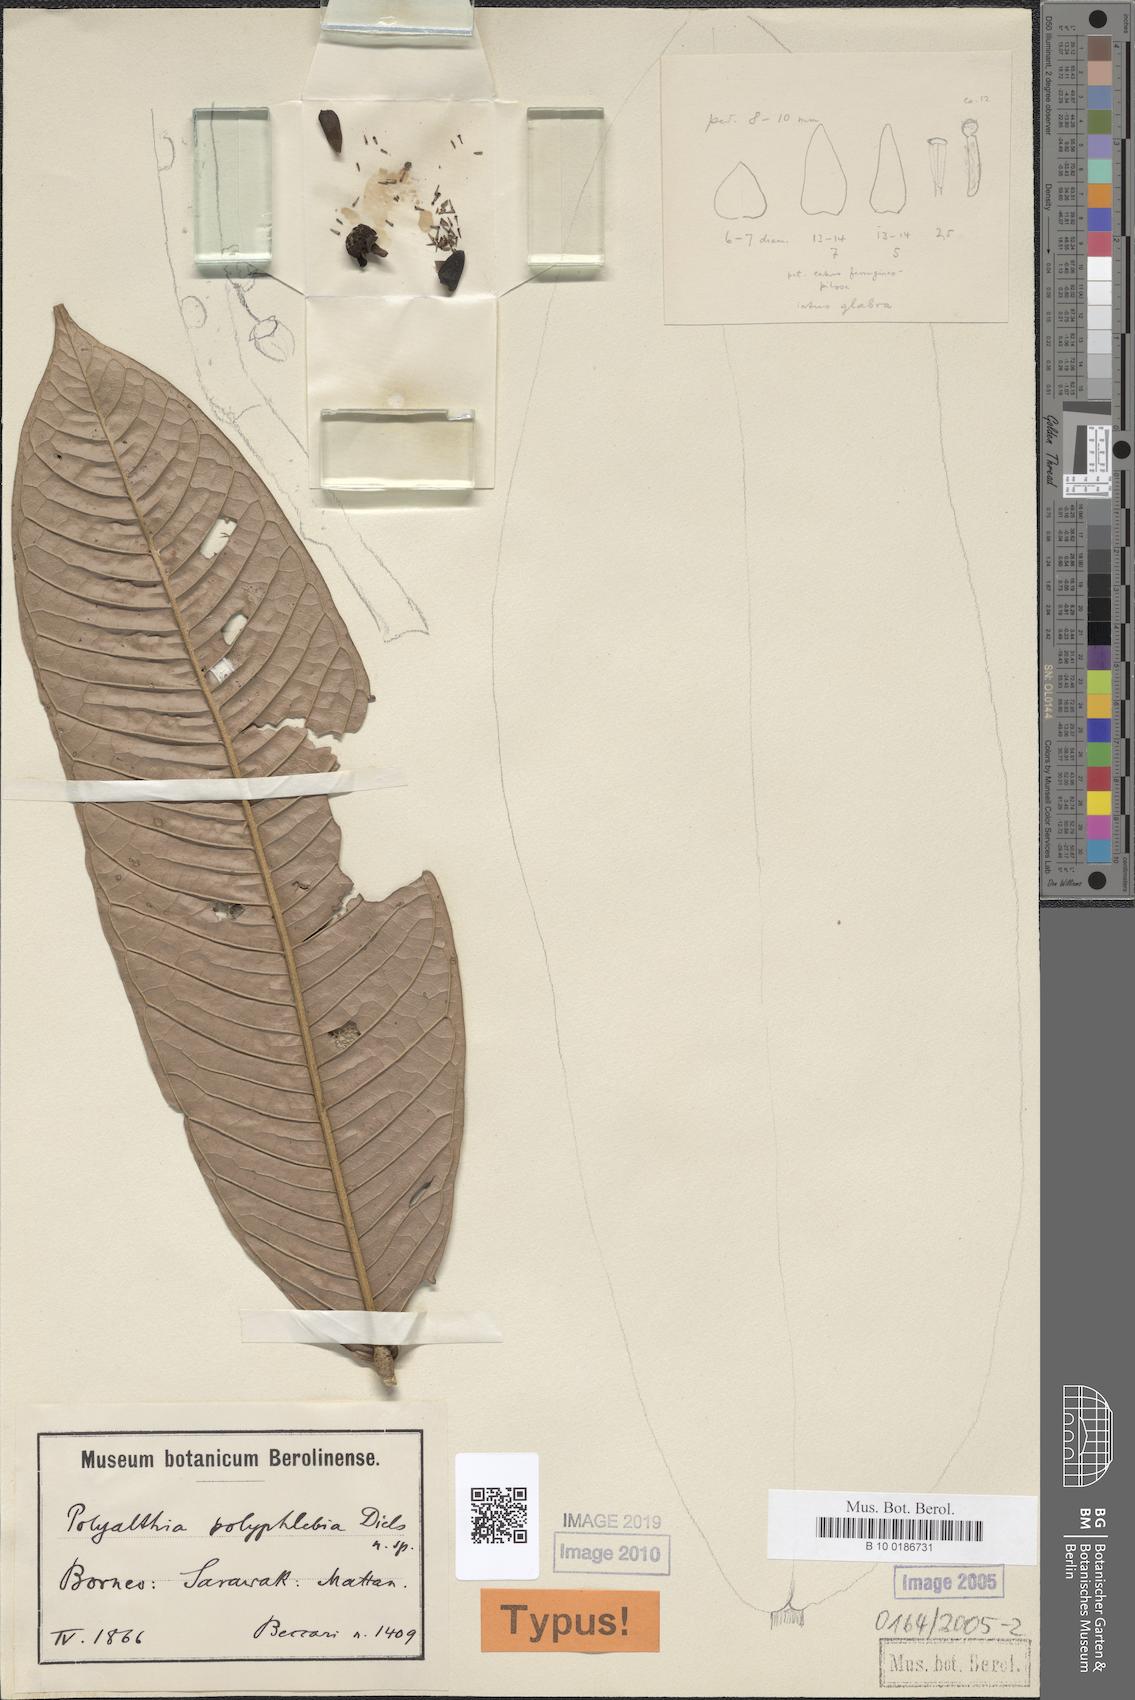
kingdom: Plantae
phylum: Tracheophyta
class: Magnoliopsida
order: Magnoliales
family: Annonaceae
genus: Polyalthia
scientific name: Polyalthia polyphlebia
